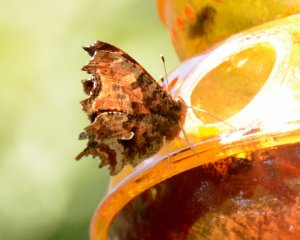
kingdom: Animalia
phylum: Arthropoda
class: Insecta
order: Lepidoptera
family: Nymphalidae
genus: Polygonia
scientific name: Polygonia comma
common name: Eastern Comma
